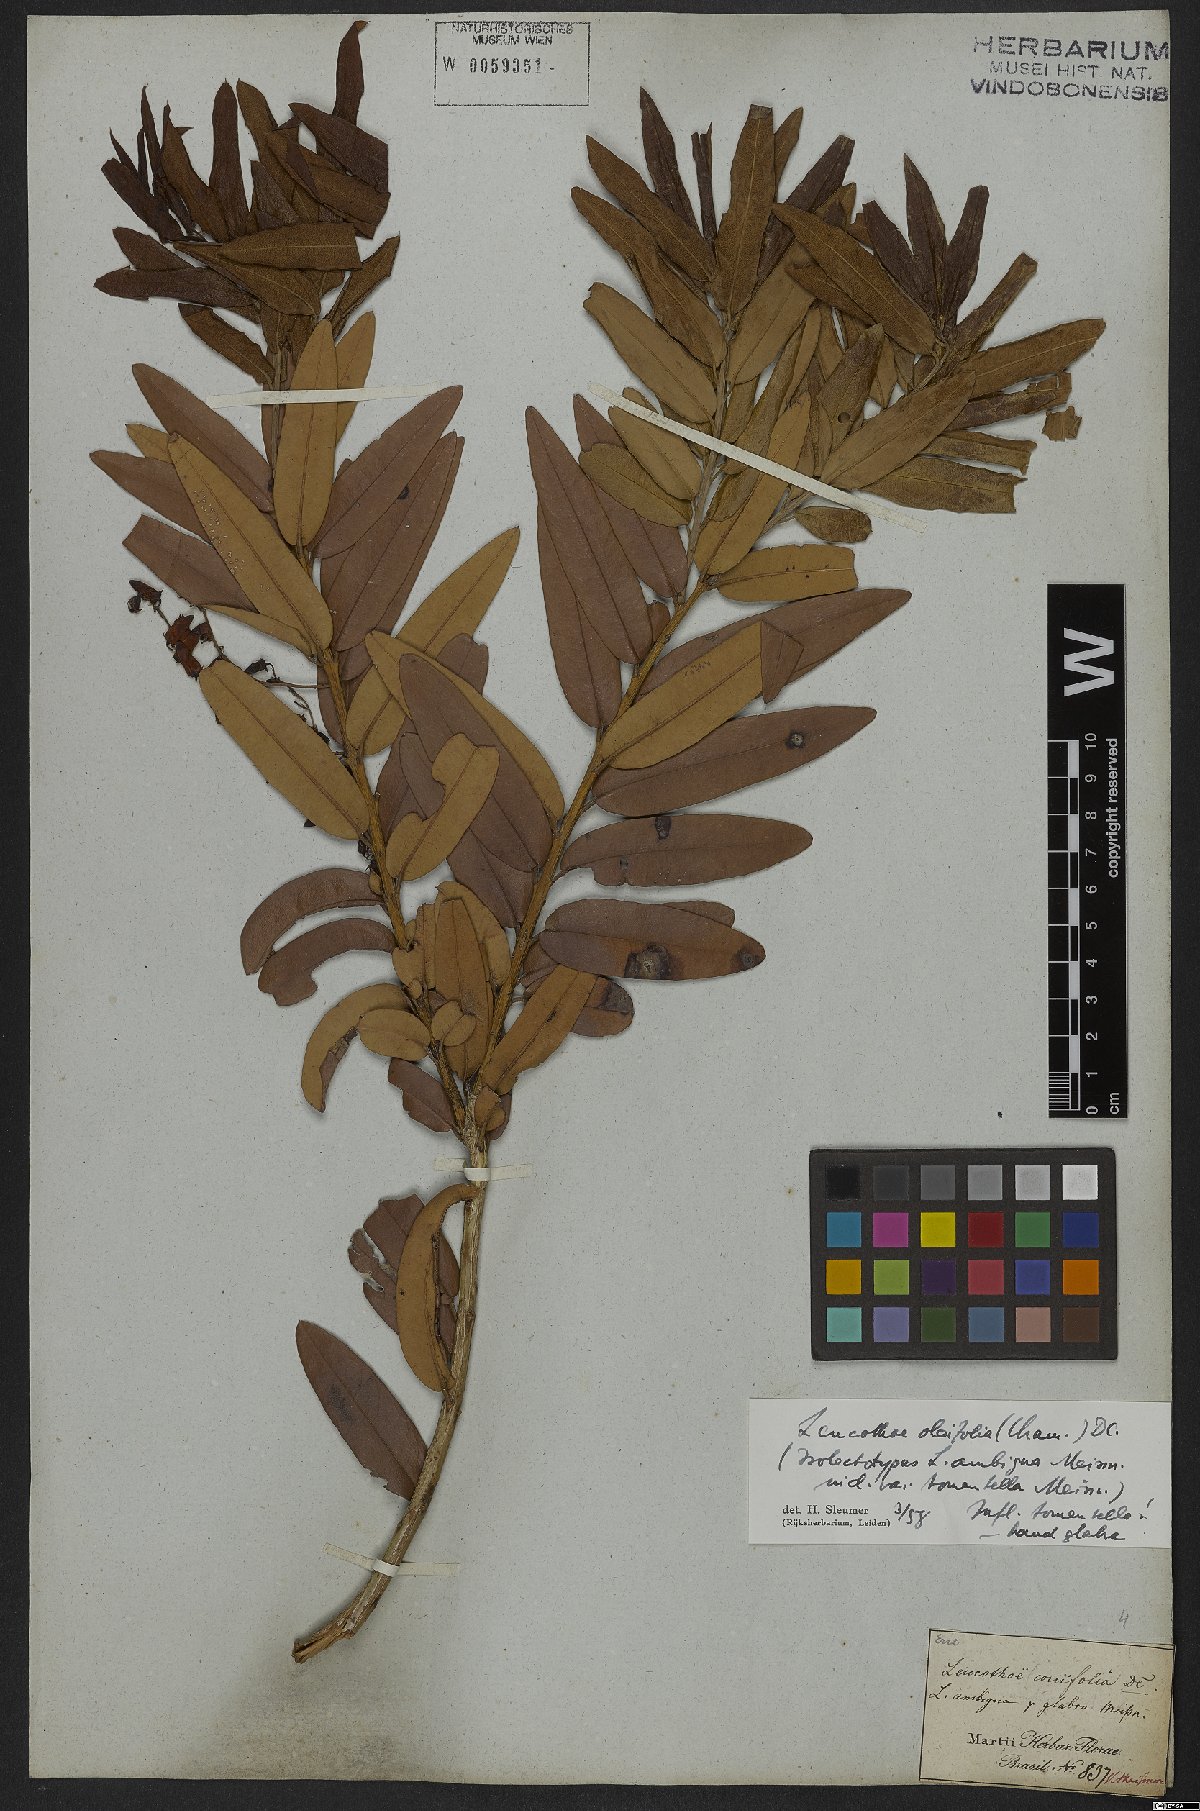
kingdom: Plantae
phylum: Tracheophyta
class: Magnoliopsida
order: Ericales
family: Ericaceae
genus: Agarista
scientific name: Agarista oleifolia
